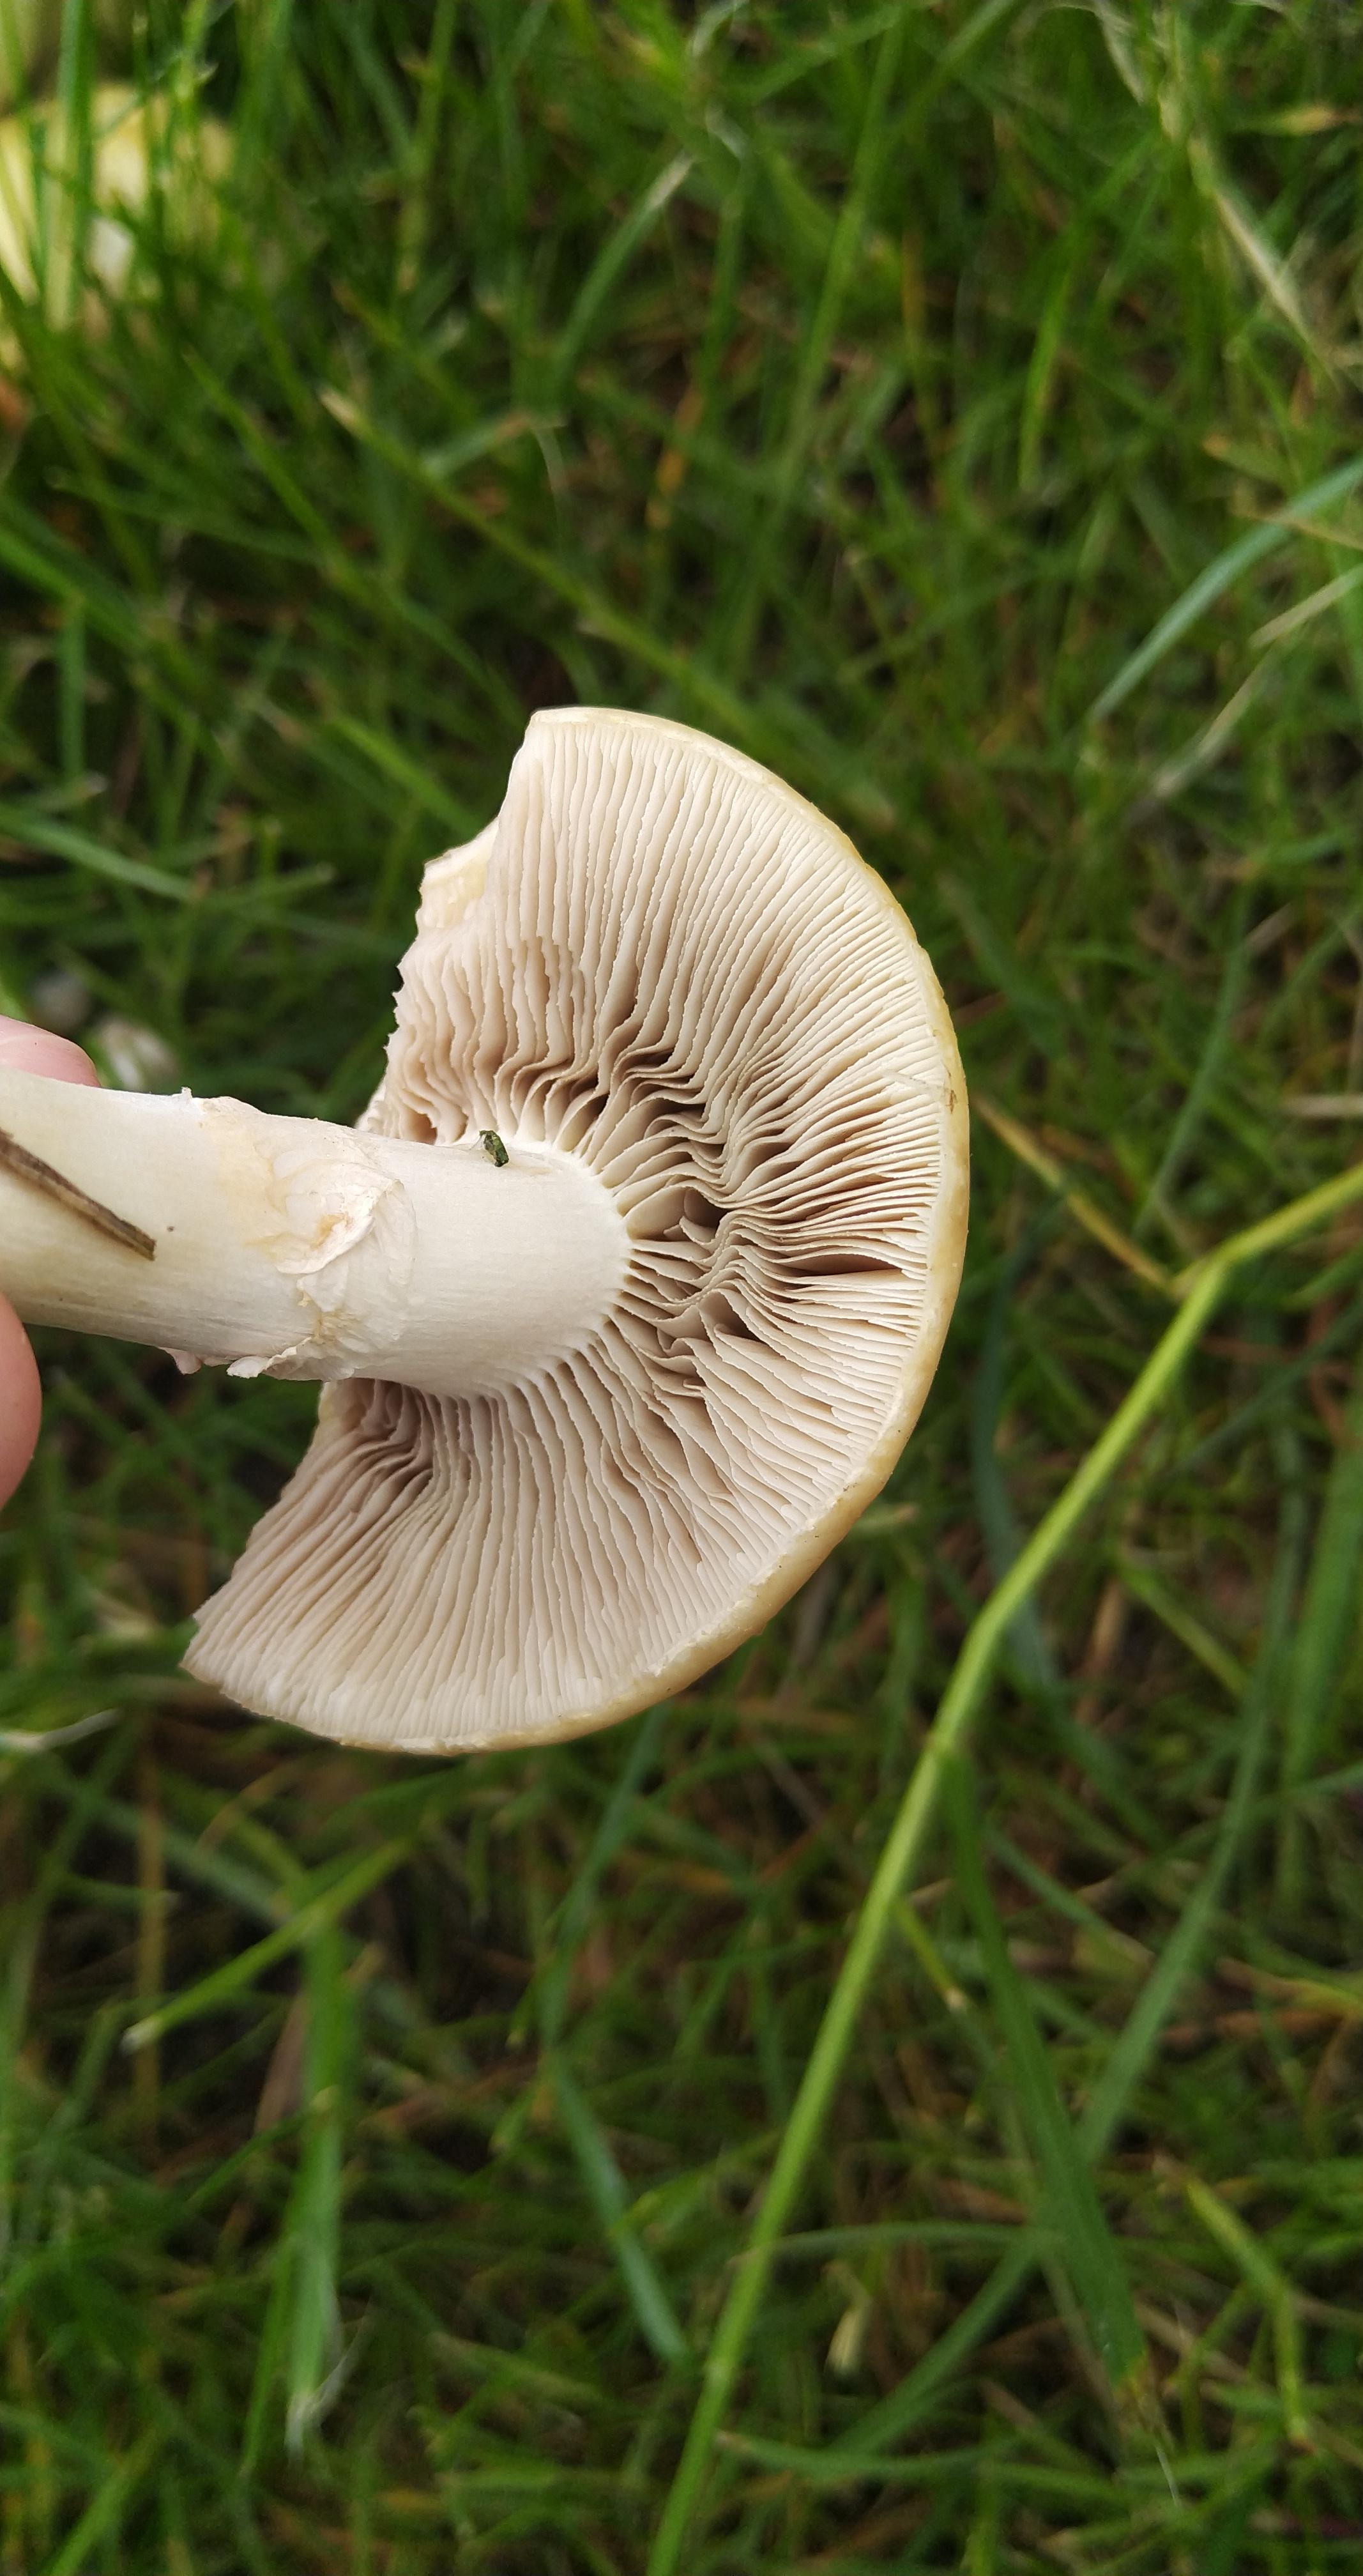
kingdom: Fungi
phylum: Basidiomycota
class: Agaricomycetes
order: Agaricales
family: Strophariaceae
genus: Agrocybe
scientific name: Agrocybe praecox
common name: tidlig agerhat
